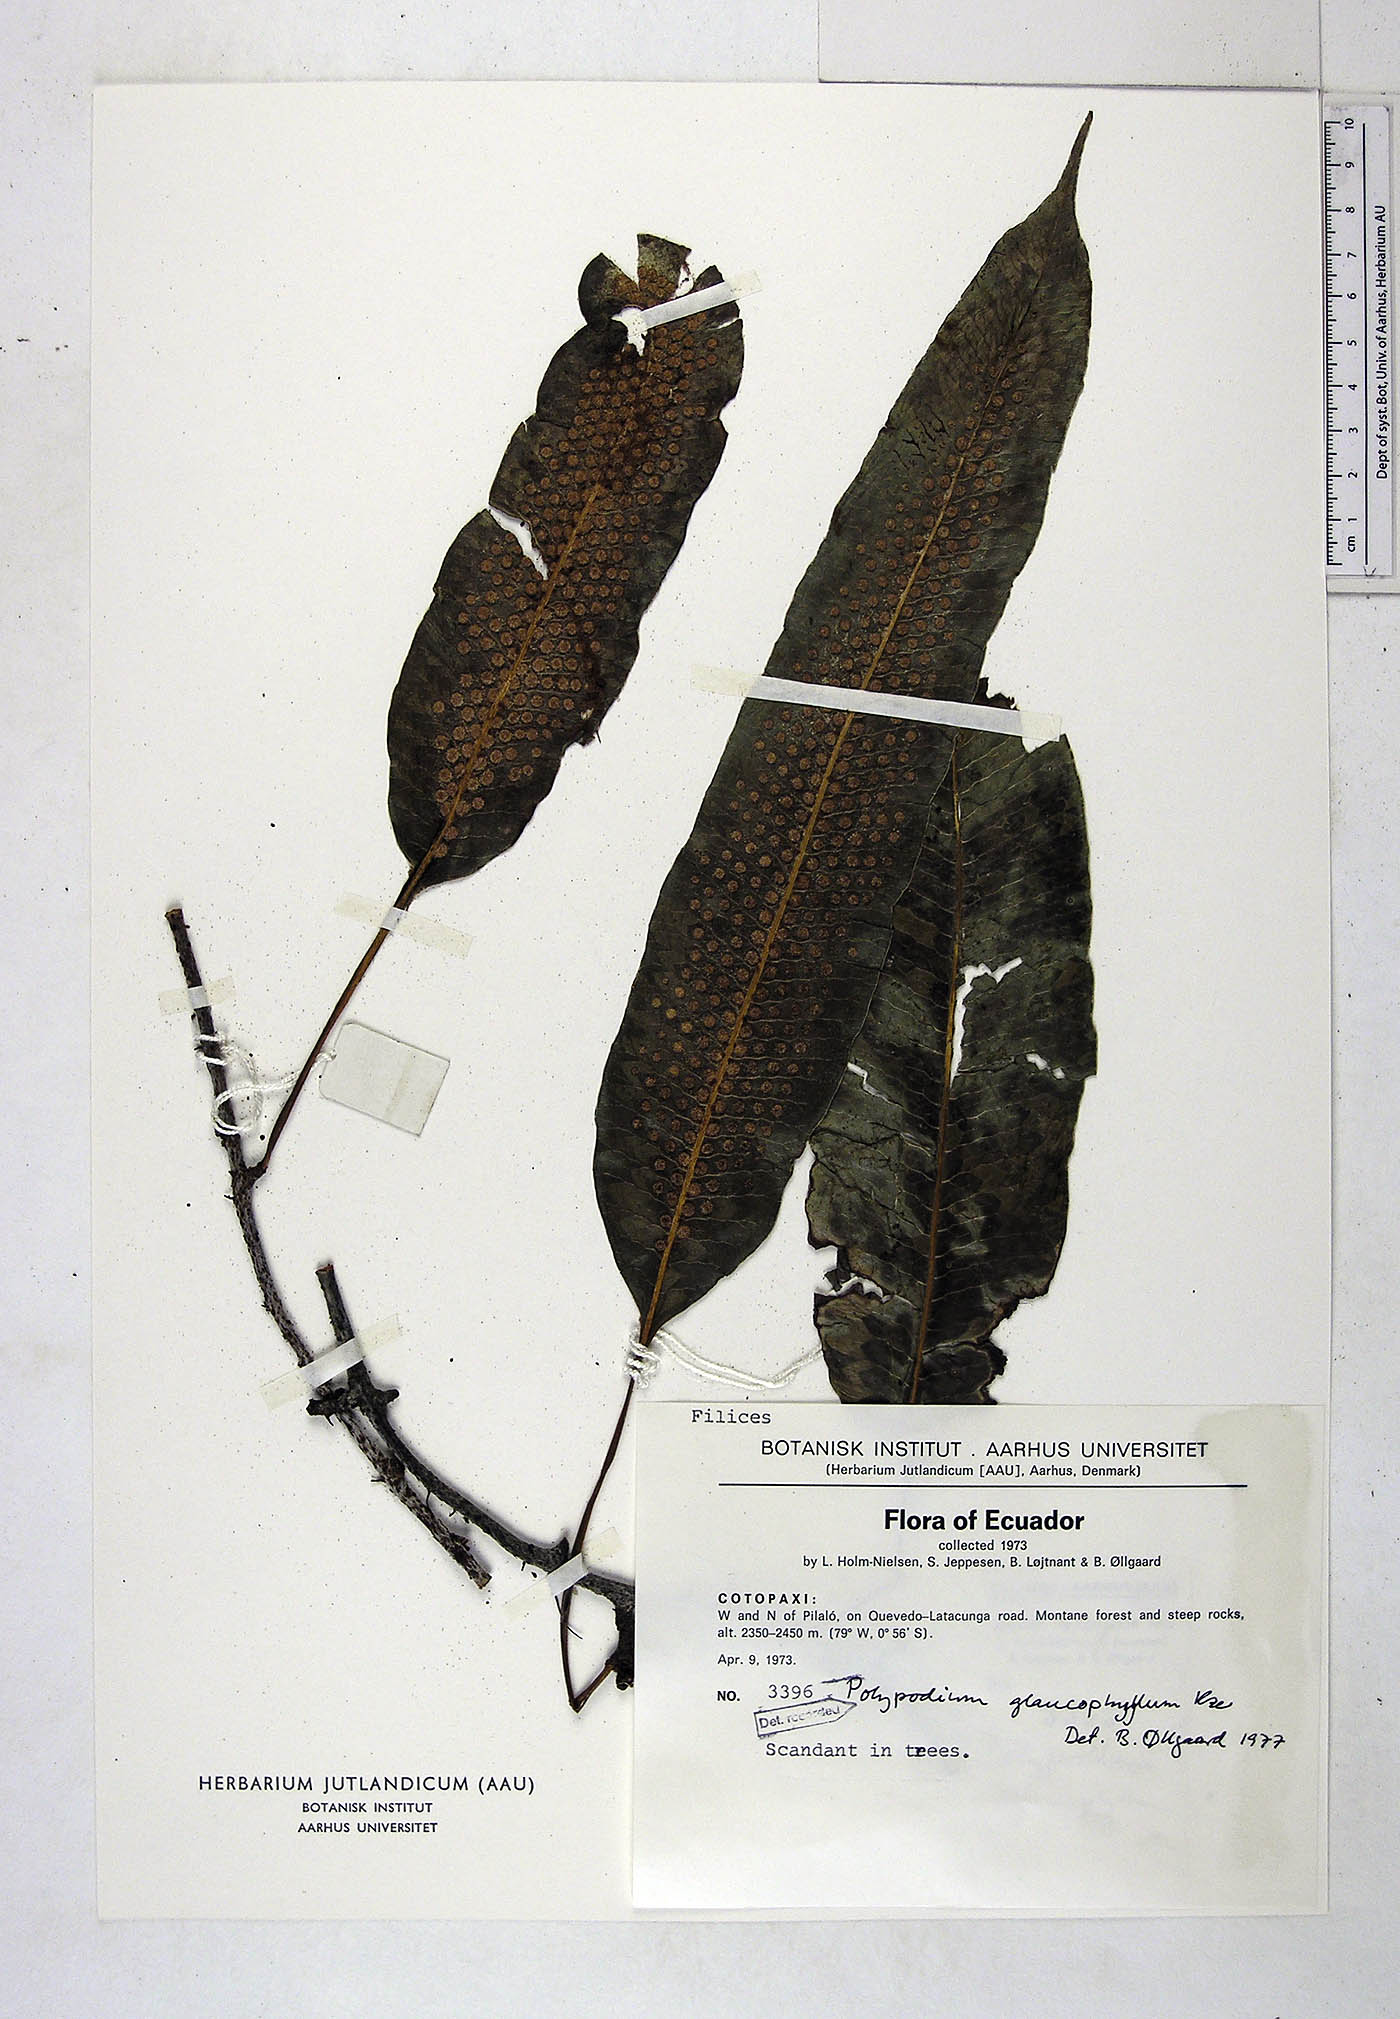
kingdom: Plantae
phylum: Tracheophyta
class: Polypodiopsida
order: Polypodiales
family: Polypodiaceae
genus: Serpocaulon
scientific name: Serpocaulon laevigatum
